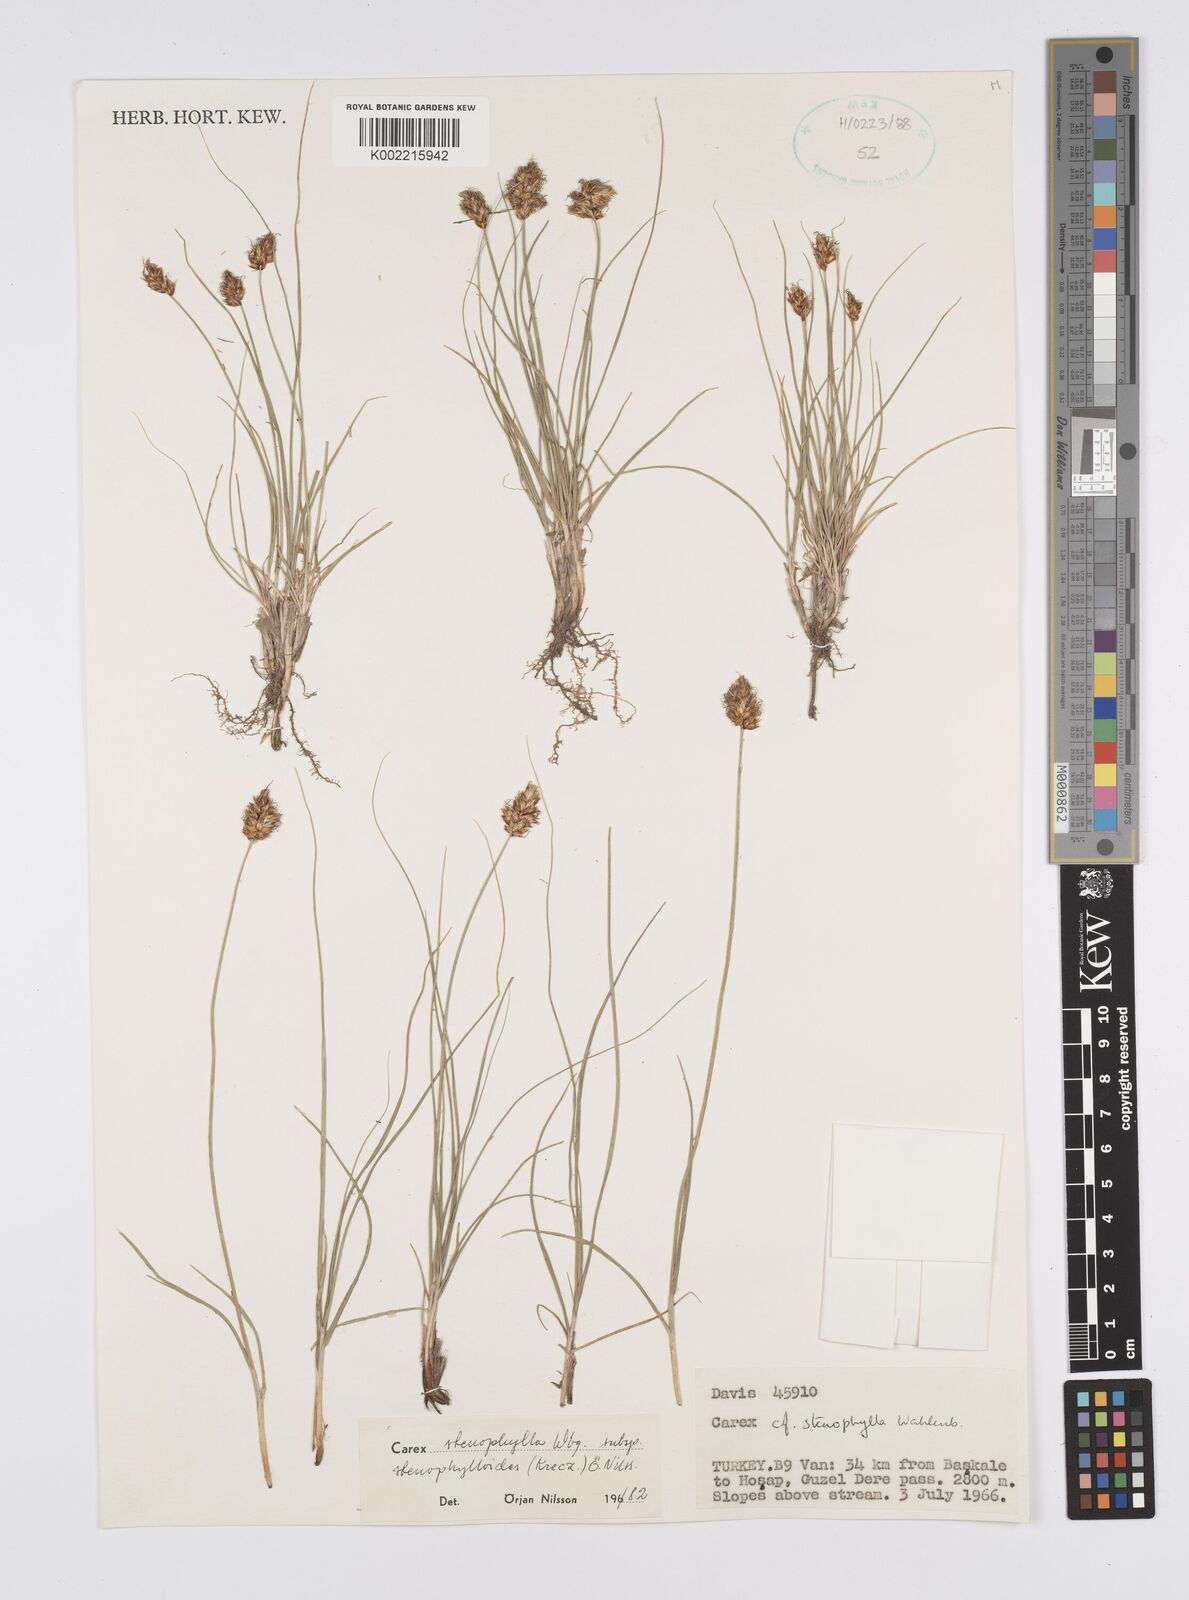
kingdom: Plantae
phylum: Tracheophyta
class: Liliopsida
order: Poales
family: Cyperaceae
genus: Carex
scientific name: Carex stenophylla
